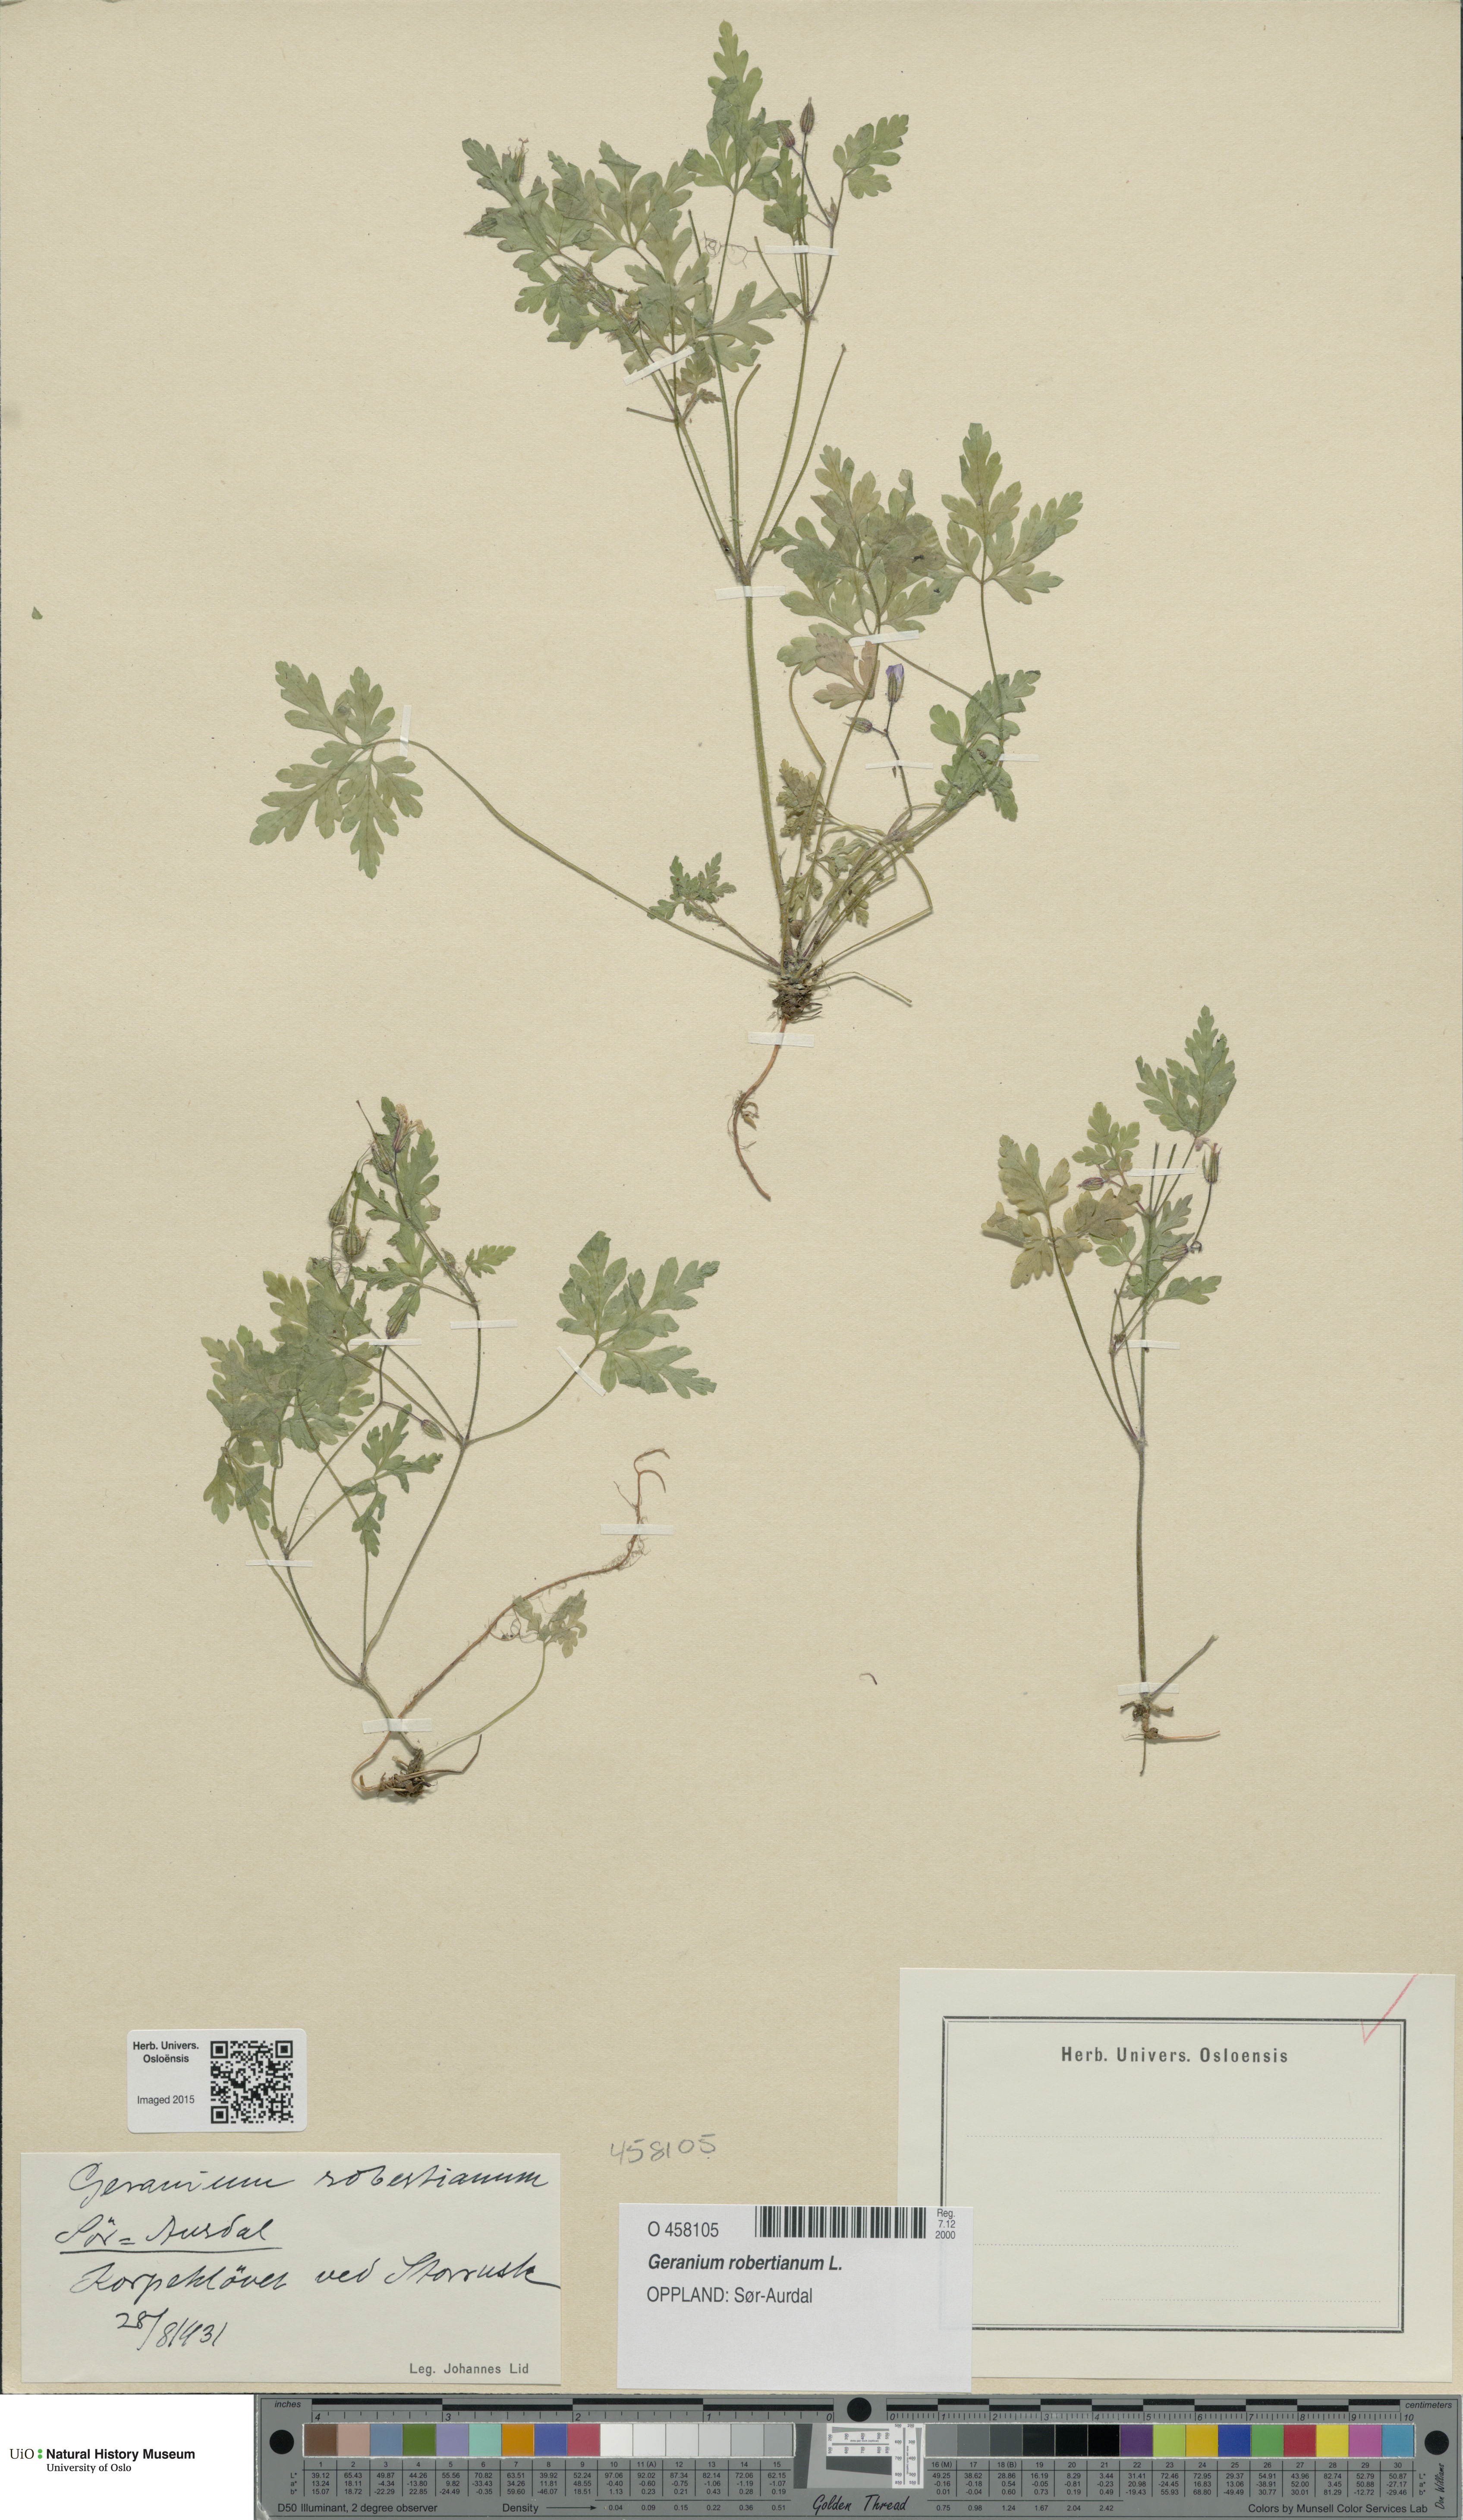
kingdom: Plantae
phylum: Tracheophyta
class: Magnoliopsida
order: Geraniales
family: Geraniaceae
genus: Geranium
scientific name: Geranium robertianum
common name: Herb-robert
